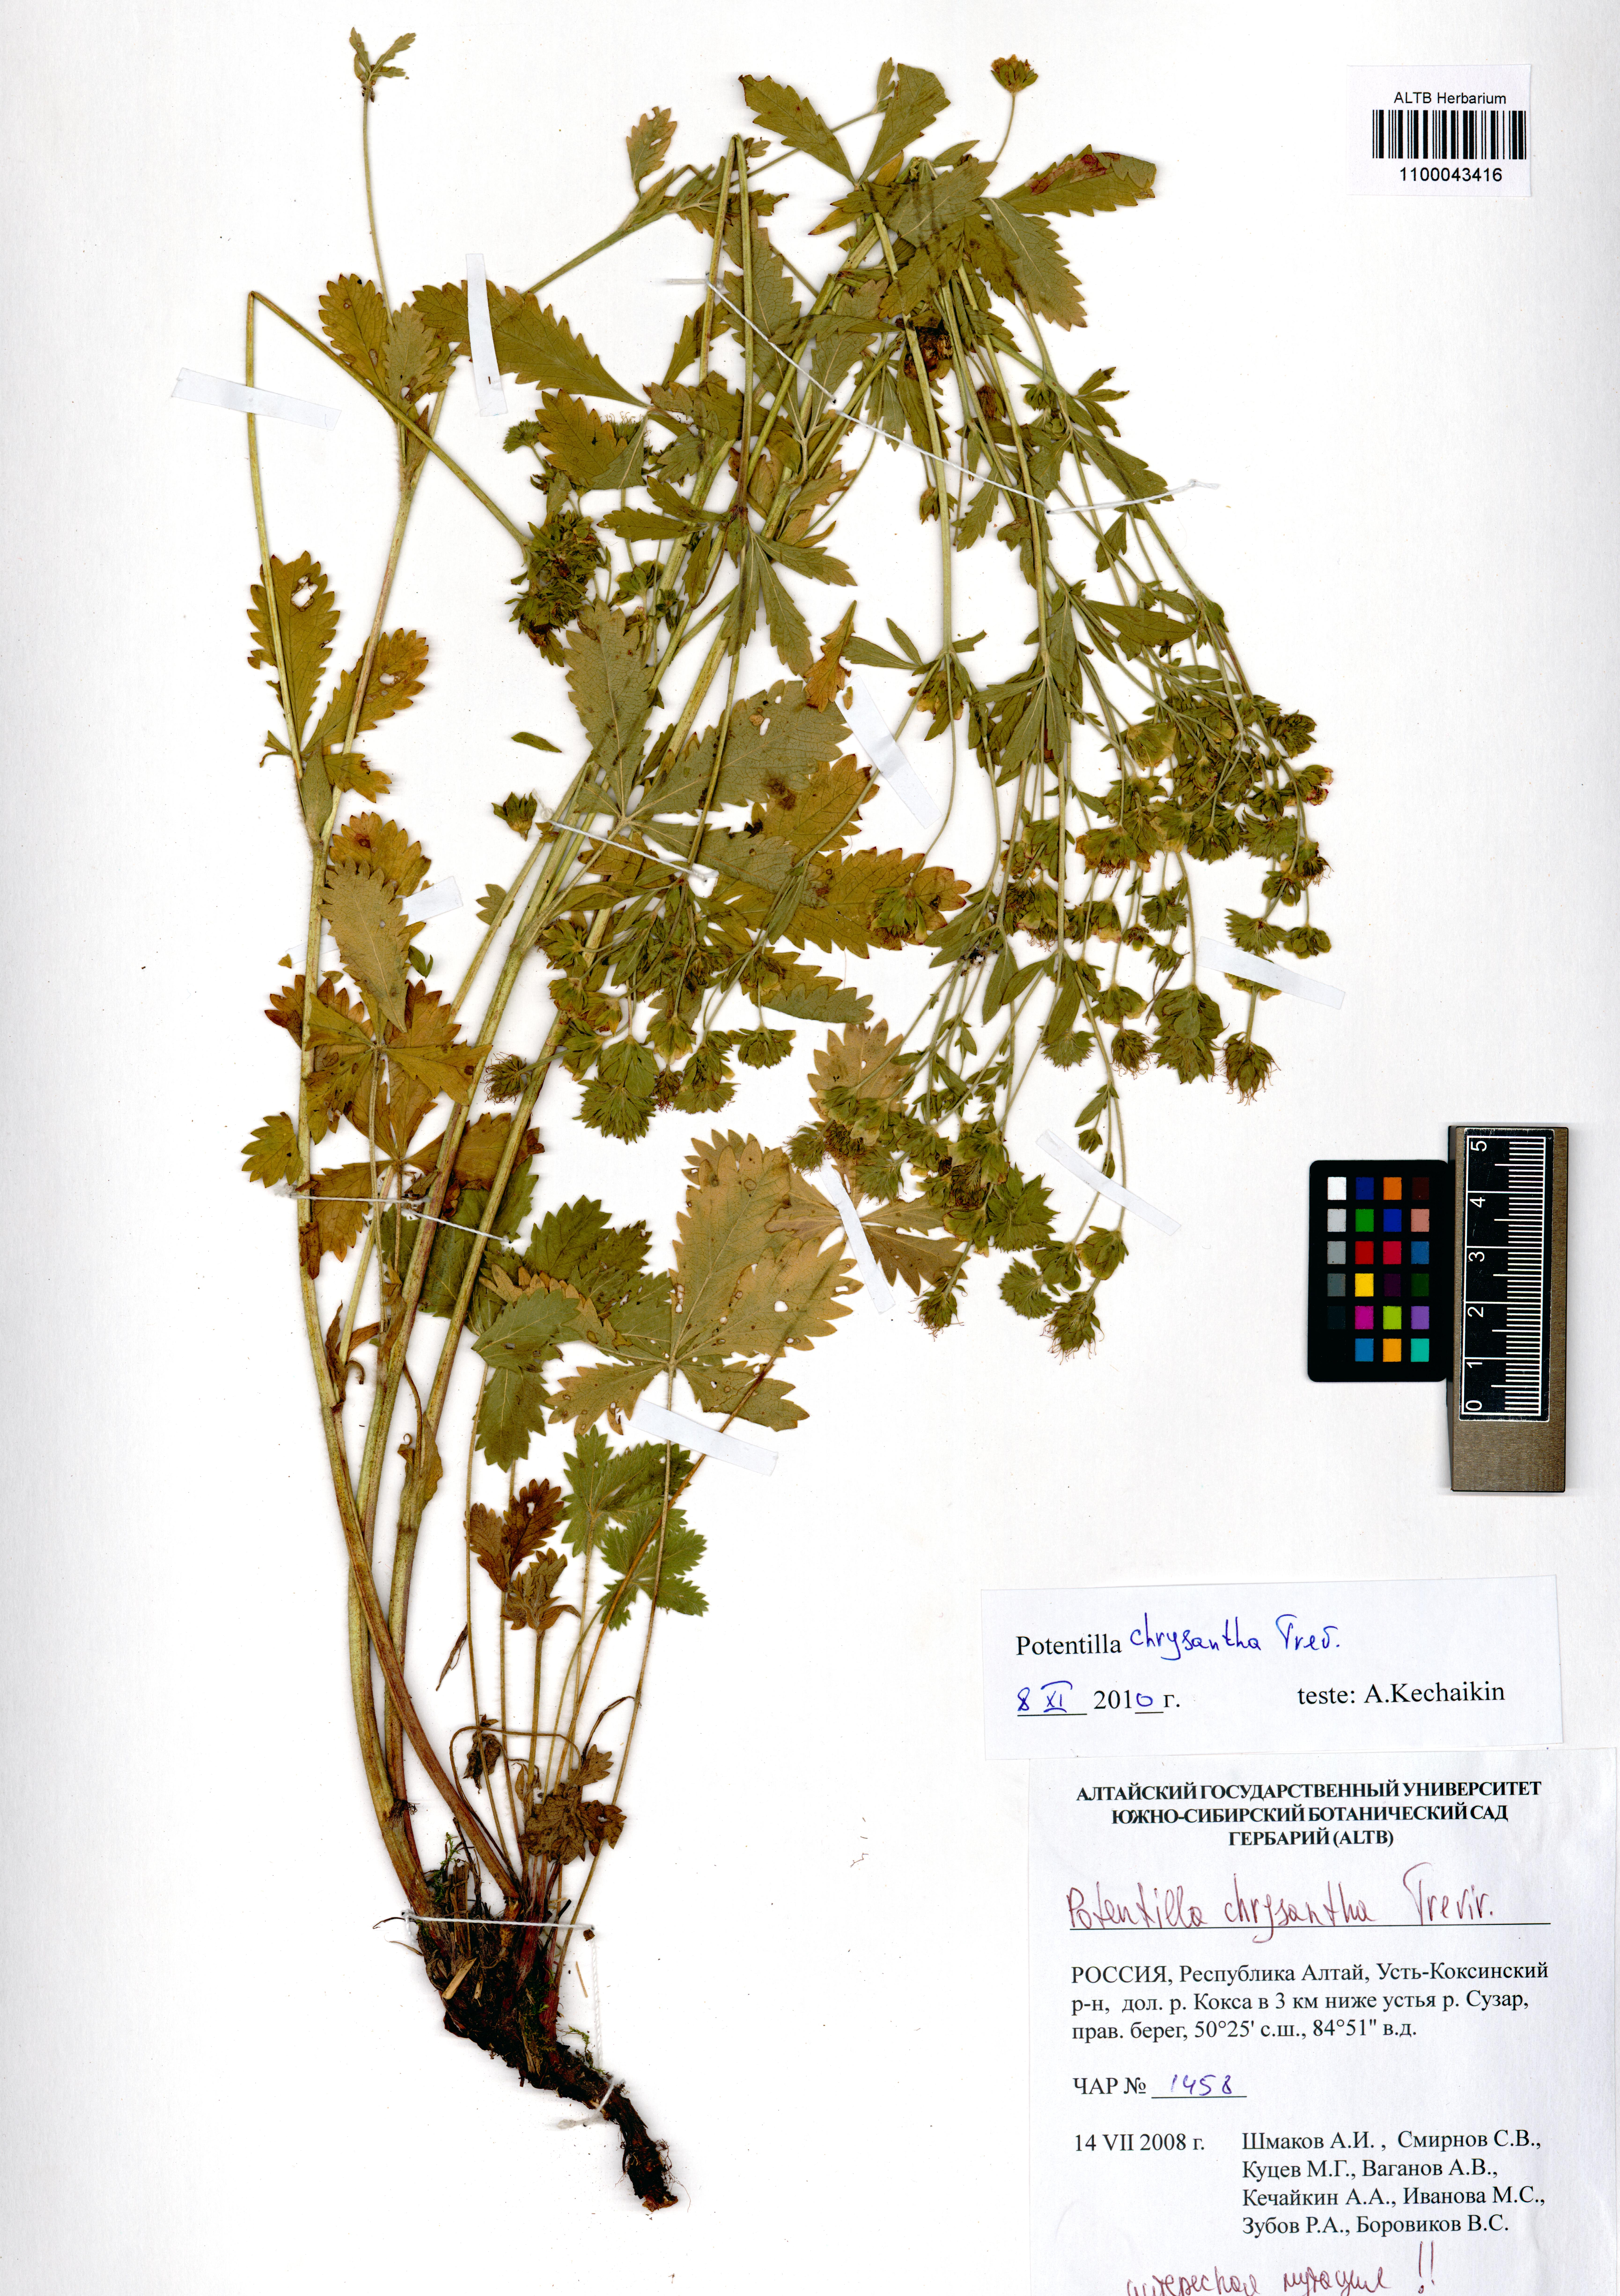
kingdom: Plantae
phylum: Tracheophyta
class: Magnoliopsida
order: Rosales
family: Rosaceae
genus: Potentilla
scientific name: Potentilla chrysantha
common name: Thuringian cinquefoil
